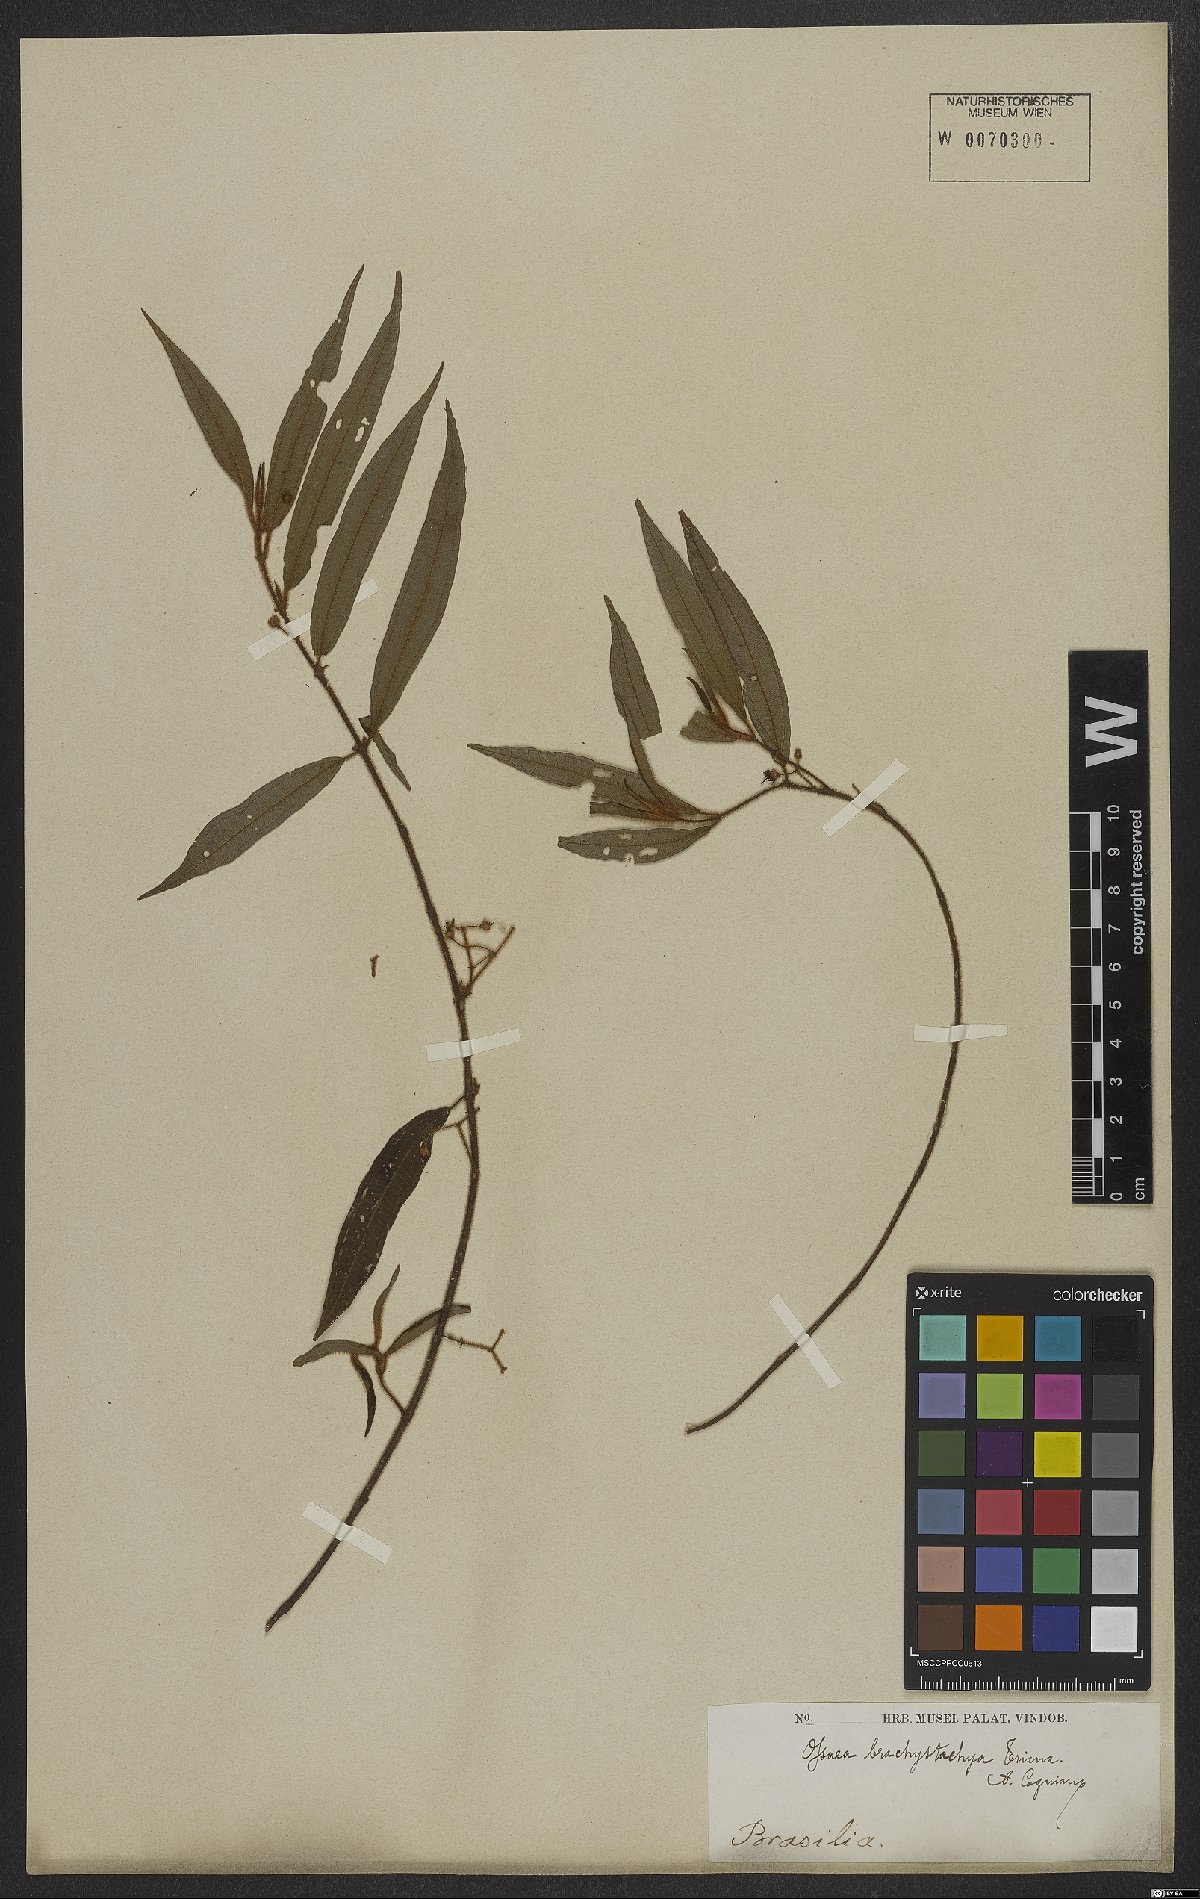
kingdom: Plantae
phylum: Tracheophyta
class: Magnoliopsida
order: Myrtales
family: Melastomataceae
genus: Miconia
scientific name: Miconia amygdaloides
